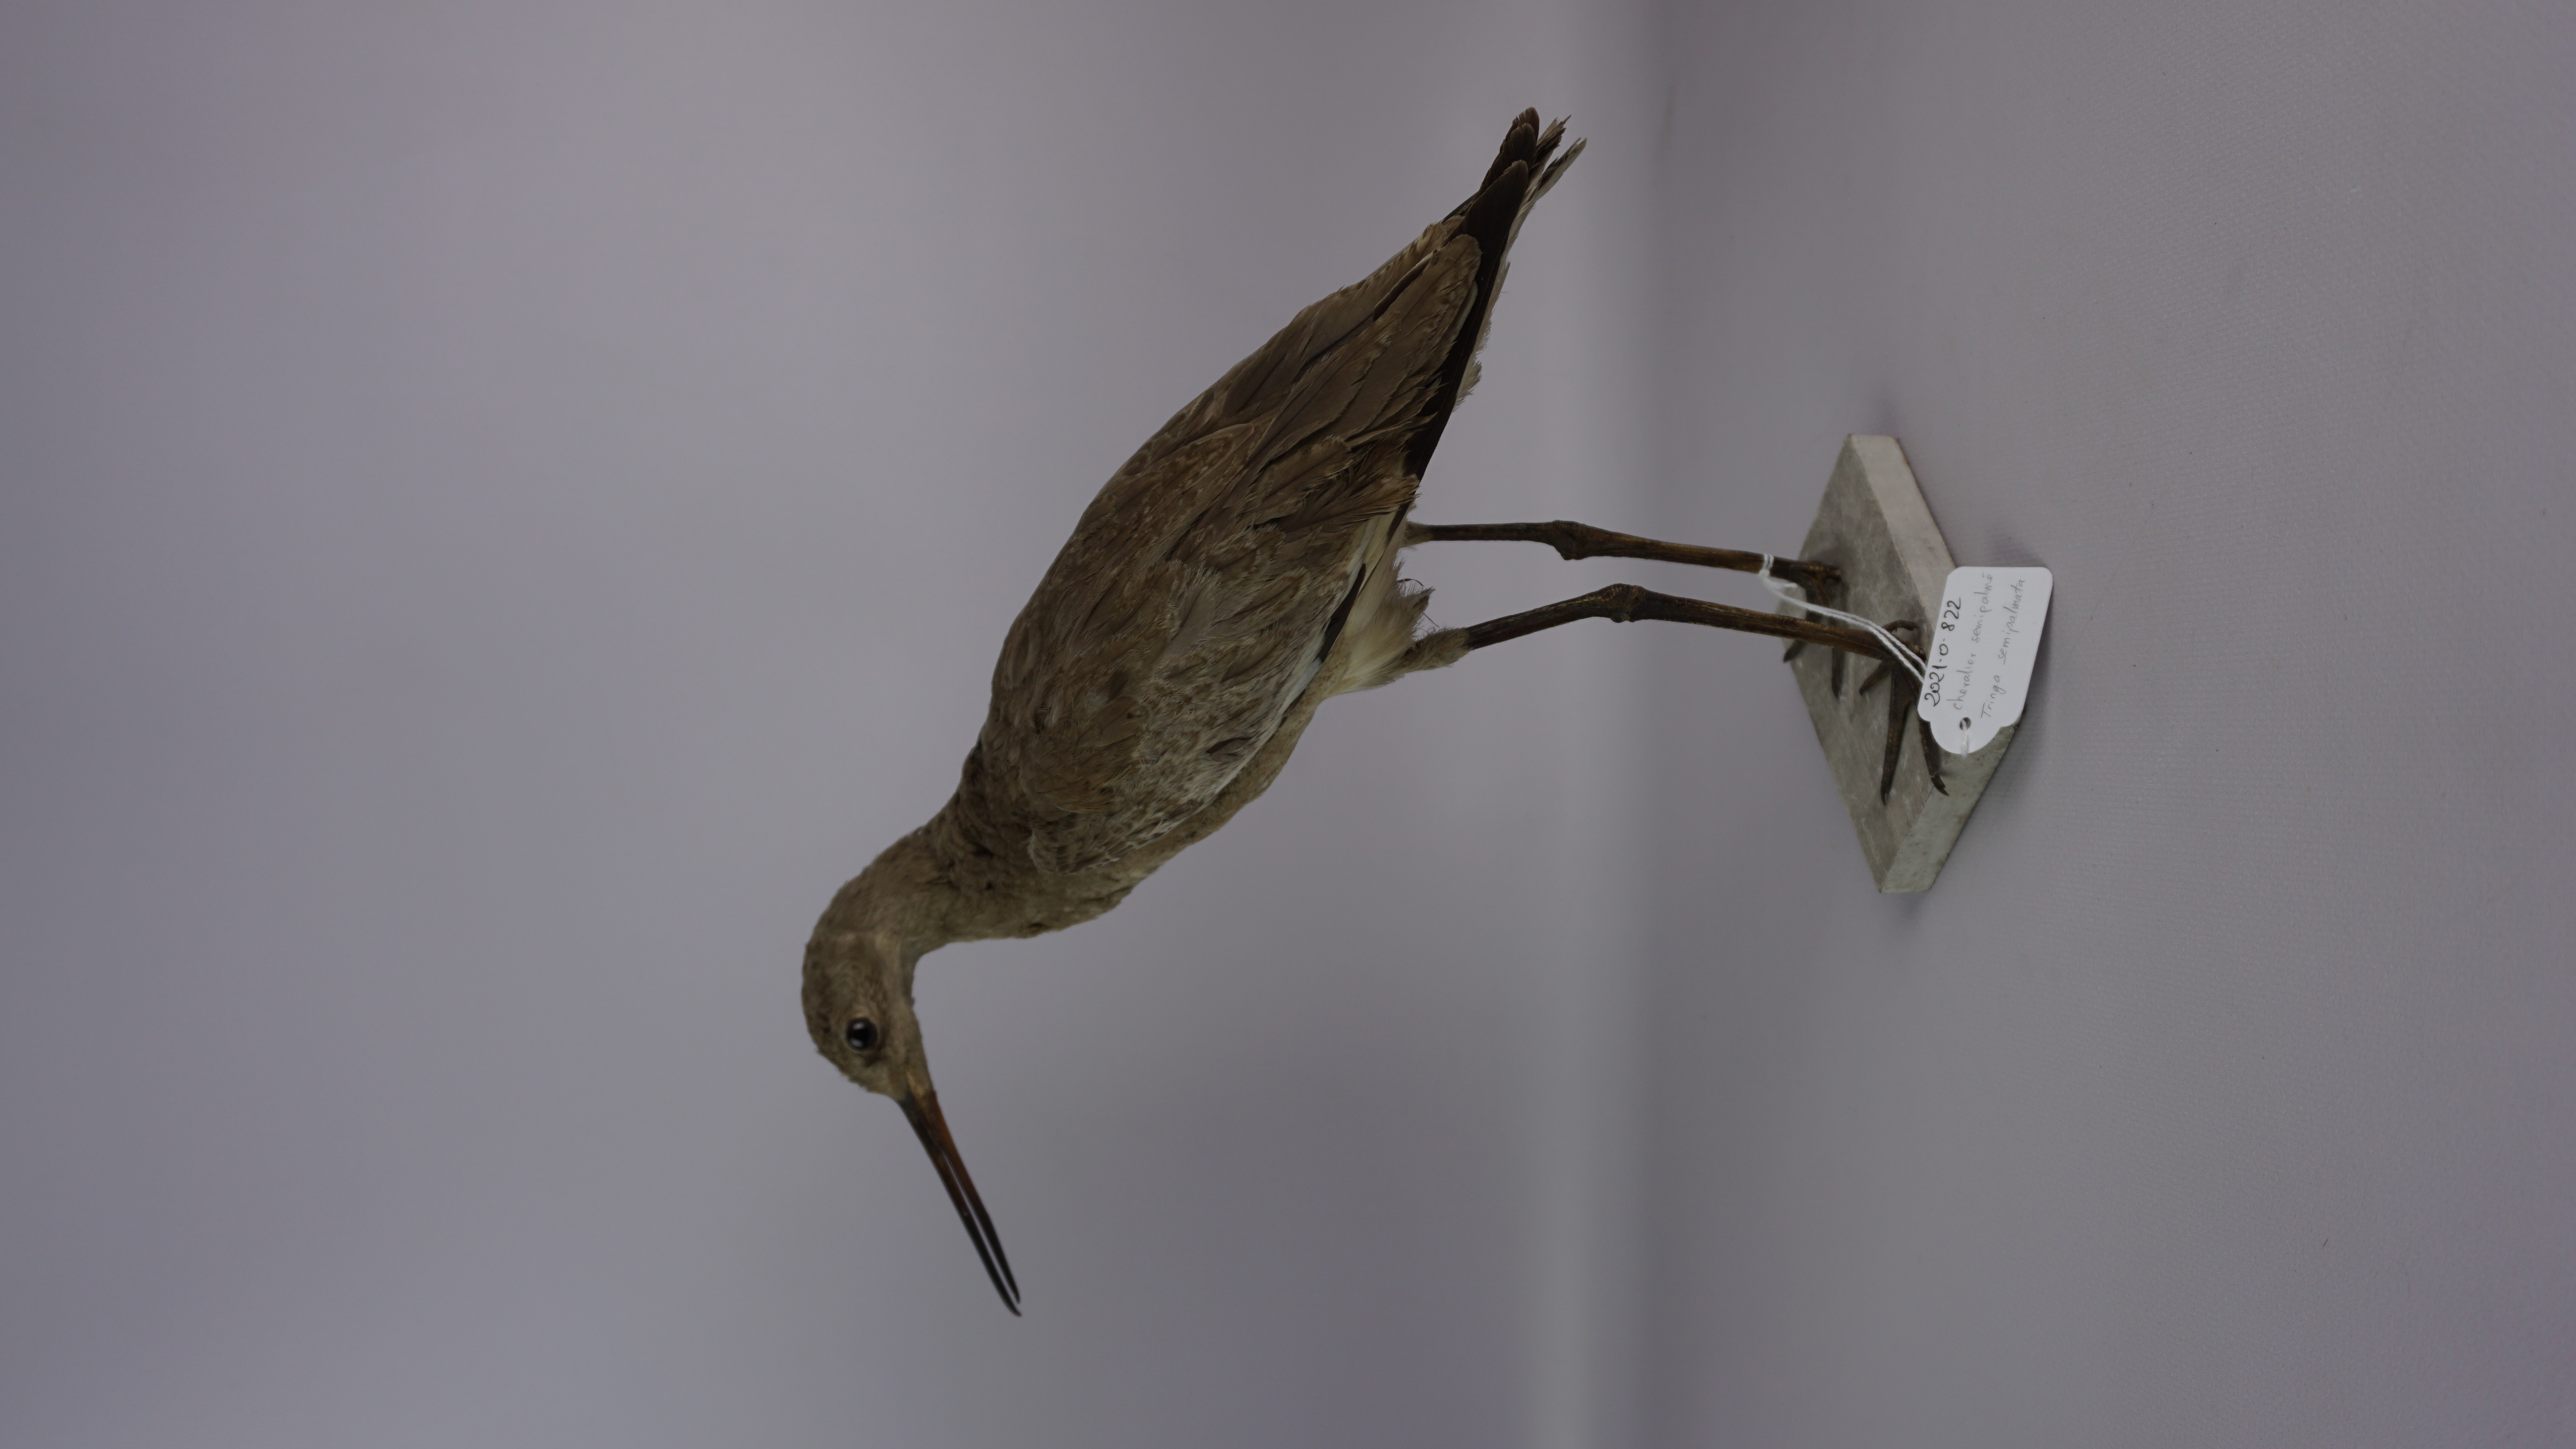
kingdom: Animalia
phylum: Chordata
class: Aves
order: Charadriiformes
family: Scolopacidae
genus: Tringa
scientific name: Tringa semipalmata
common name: Willet
